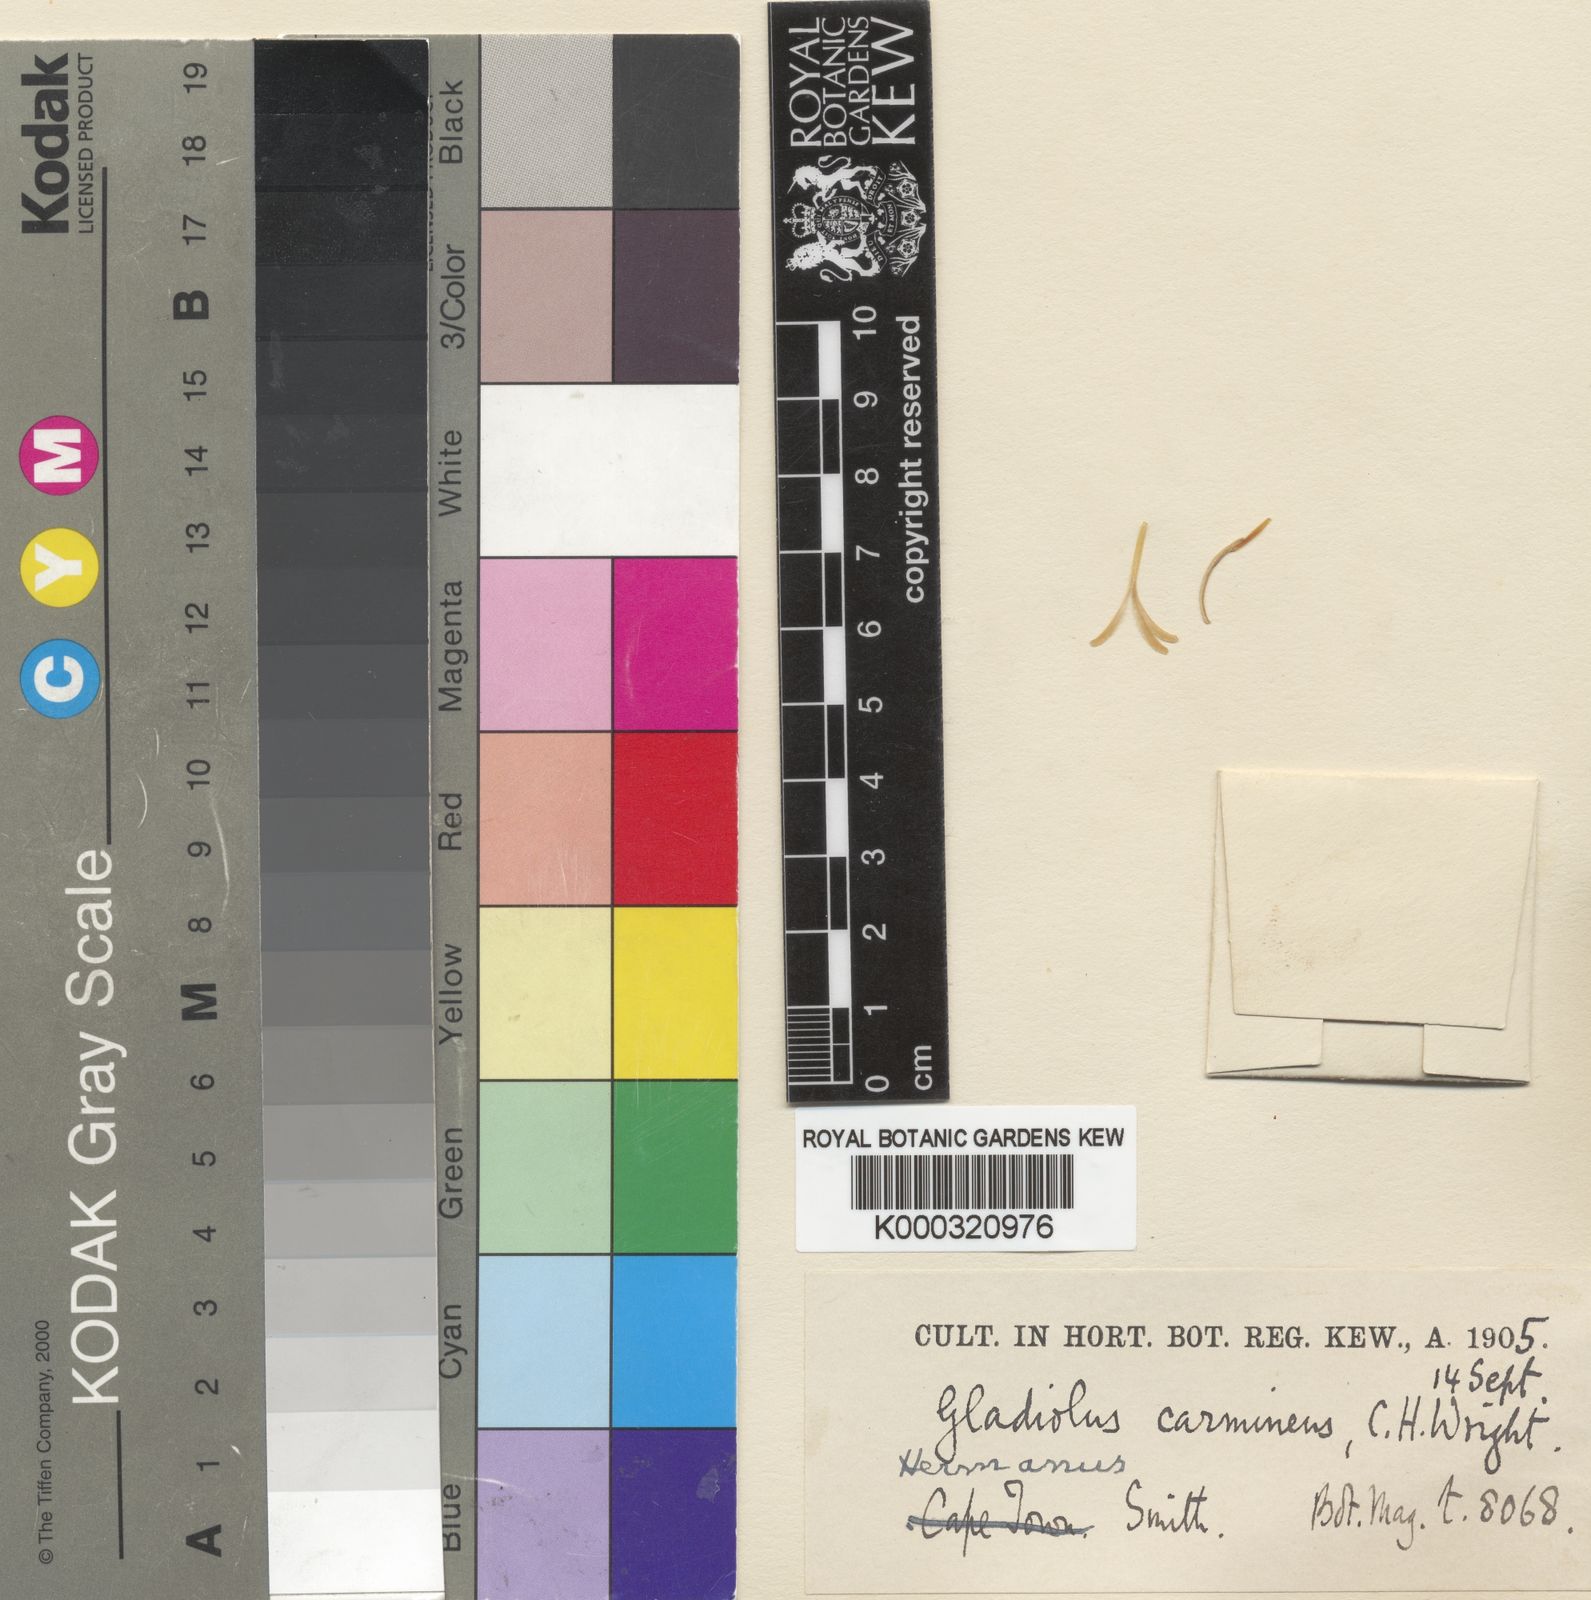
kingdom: Plantae
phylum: Tracheophyta
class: Liliopsida
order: Asparagales
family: Iridaceae
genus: Gladiolus
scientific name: Gladiolus carmineus
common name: Hermanus gladiolus
